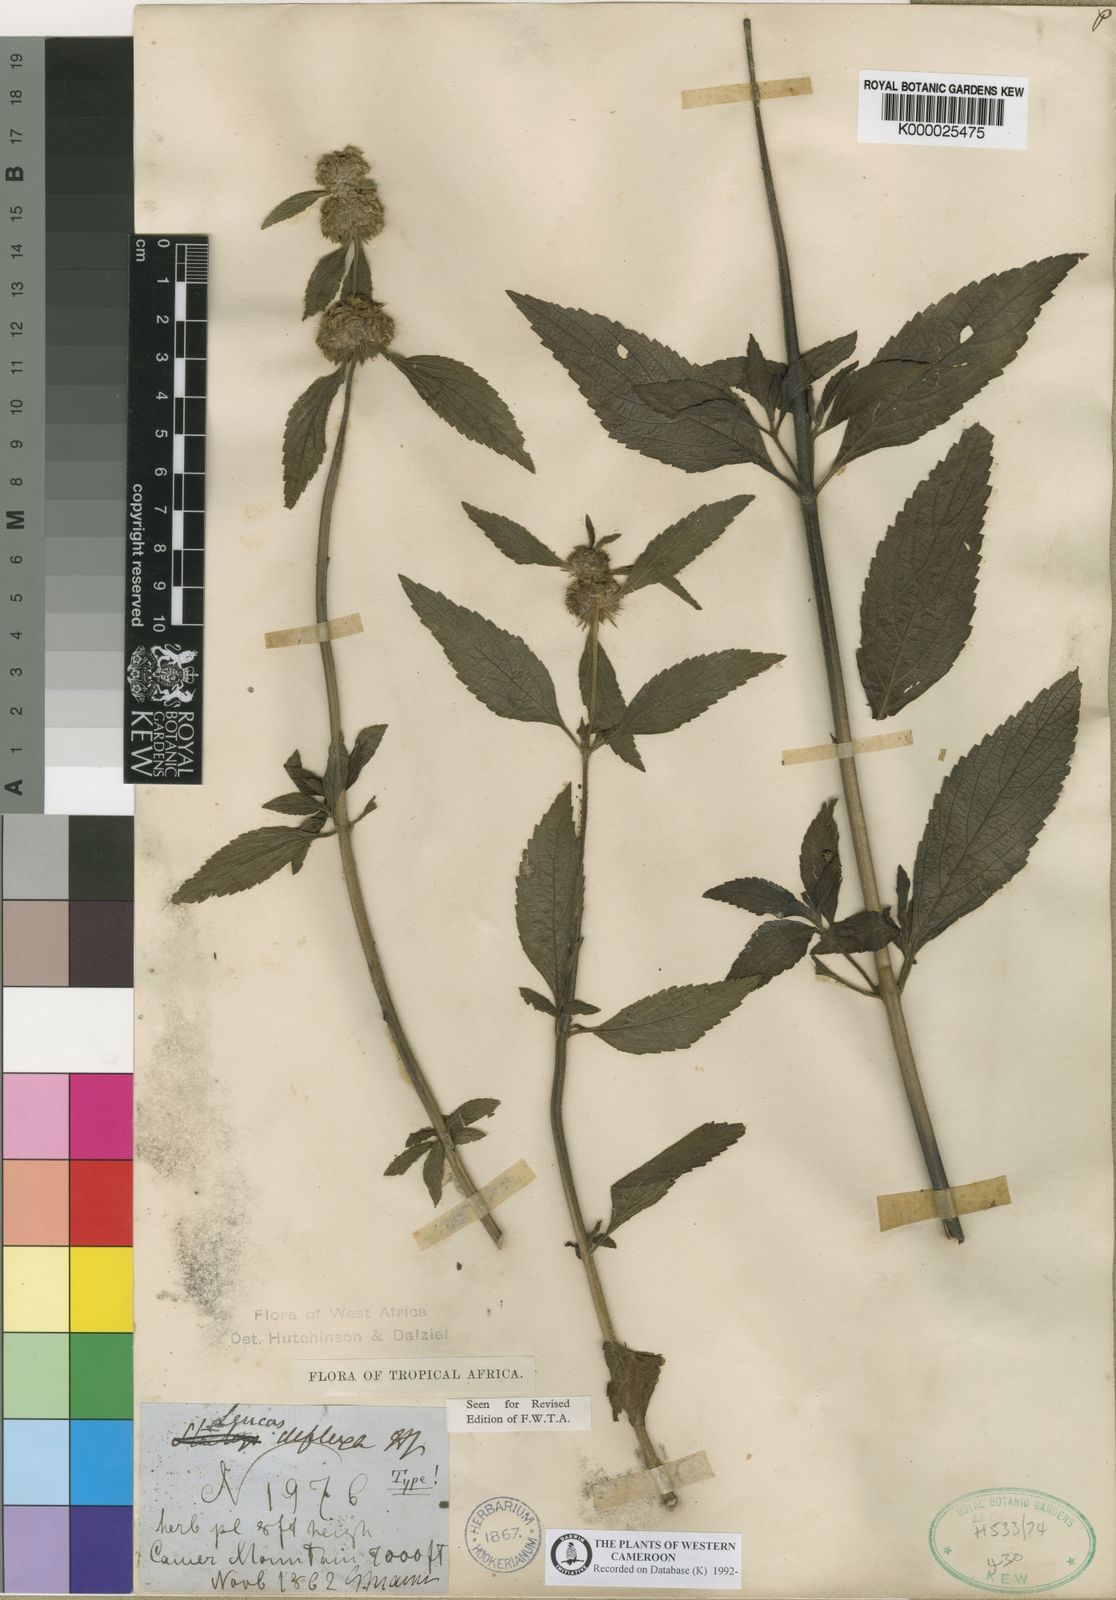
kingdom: Plantae
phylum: Tracheophyta
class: Magnoliopsida
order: Lamiales
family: Lamiaceae
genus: Leucas
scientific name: Leucas deflexa
